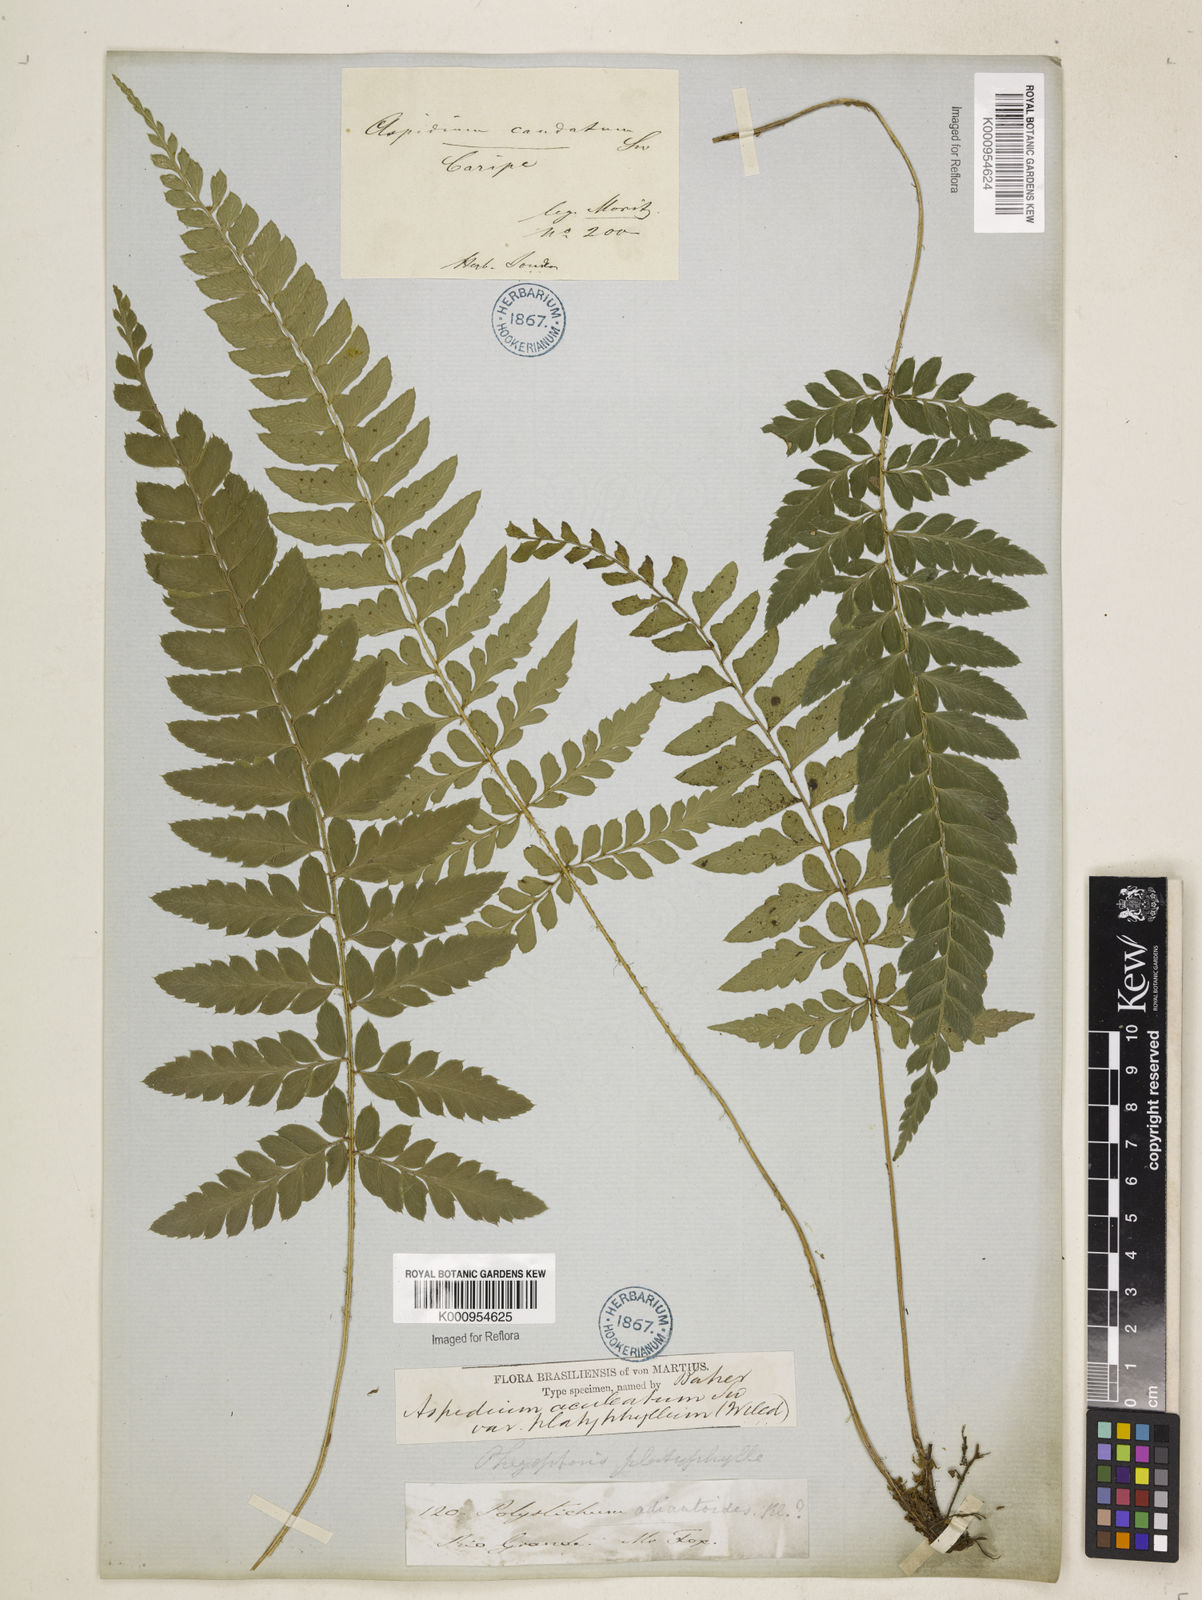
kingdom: Plantae
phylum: Tracheophyta
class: Polypodiopsida
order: Polypodiales
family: Dryopteridaceae
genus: Polystichum
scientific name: Polystichum platyphyllum
